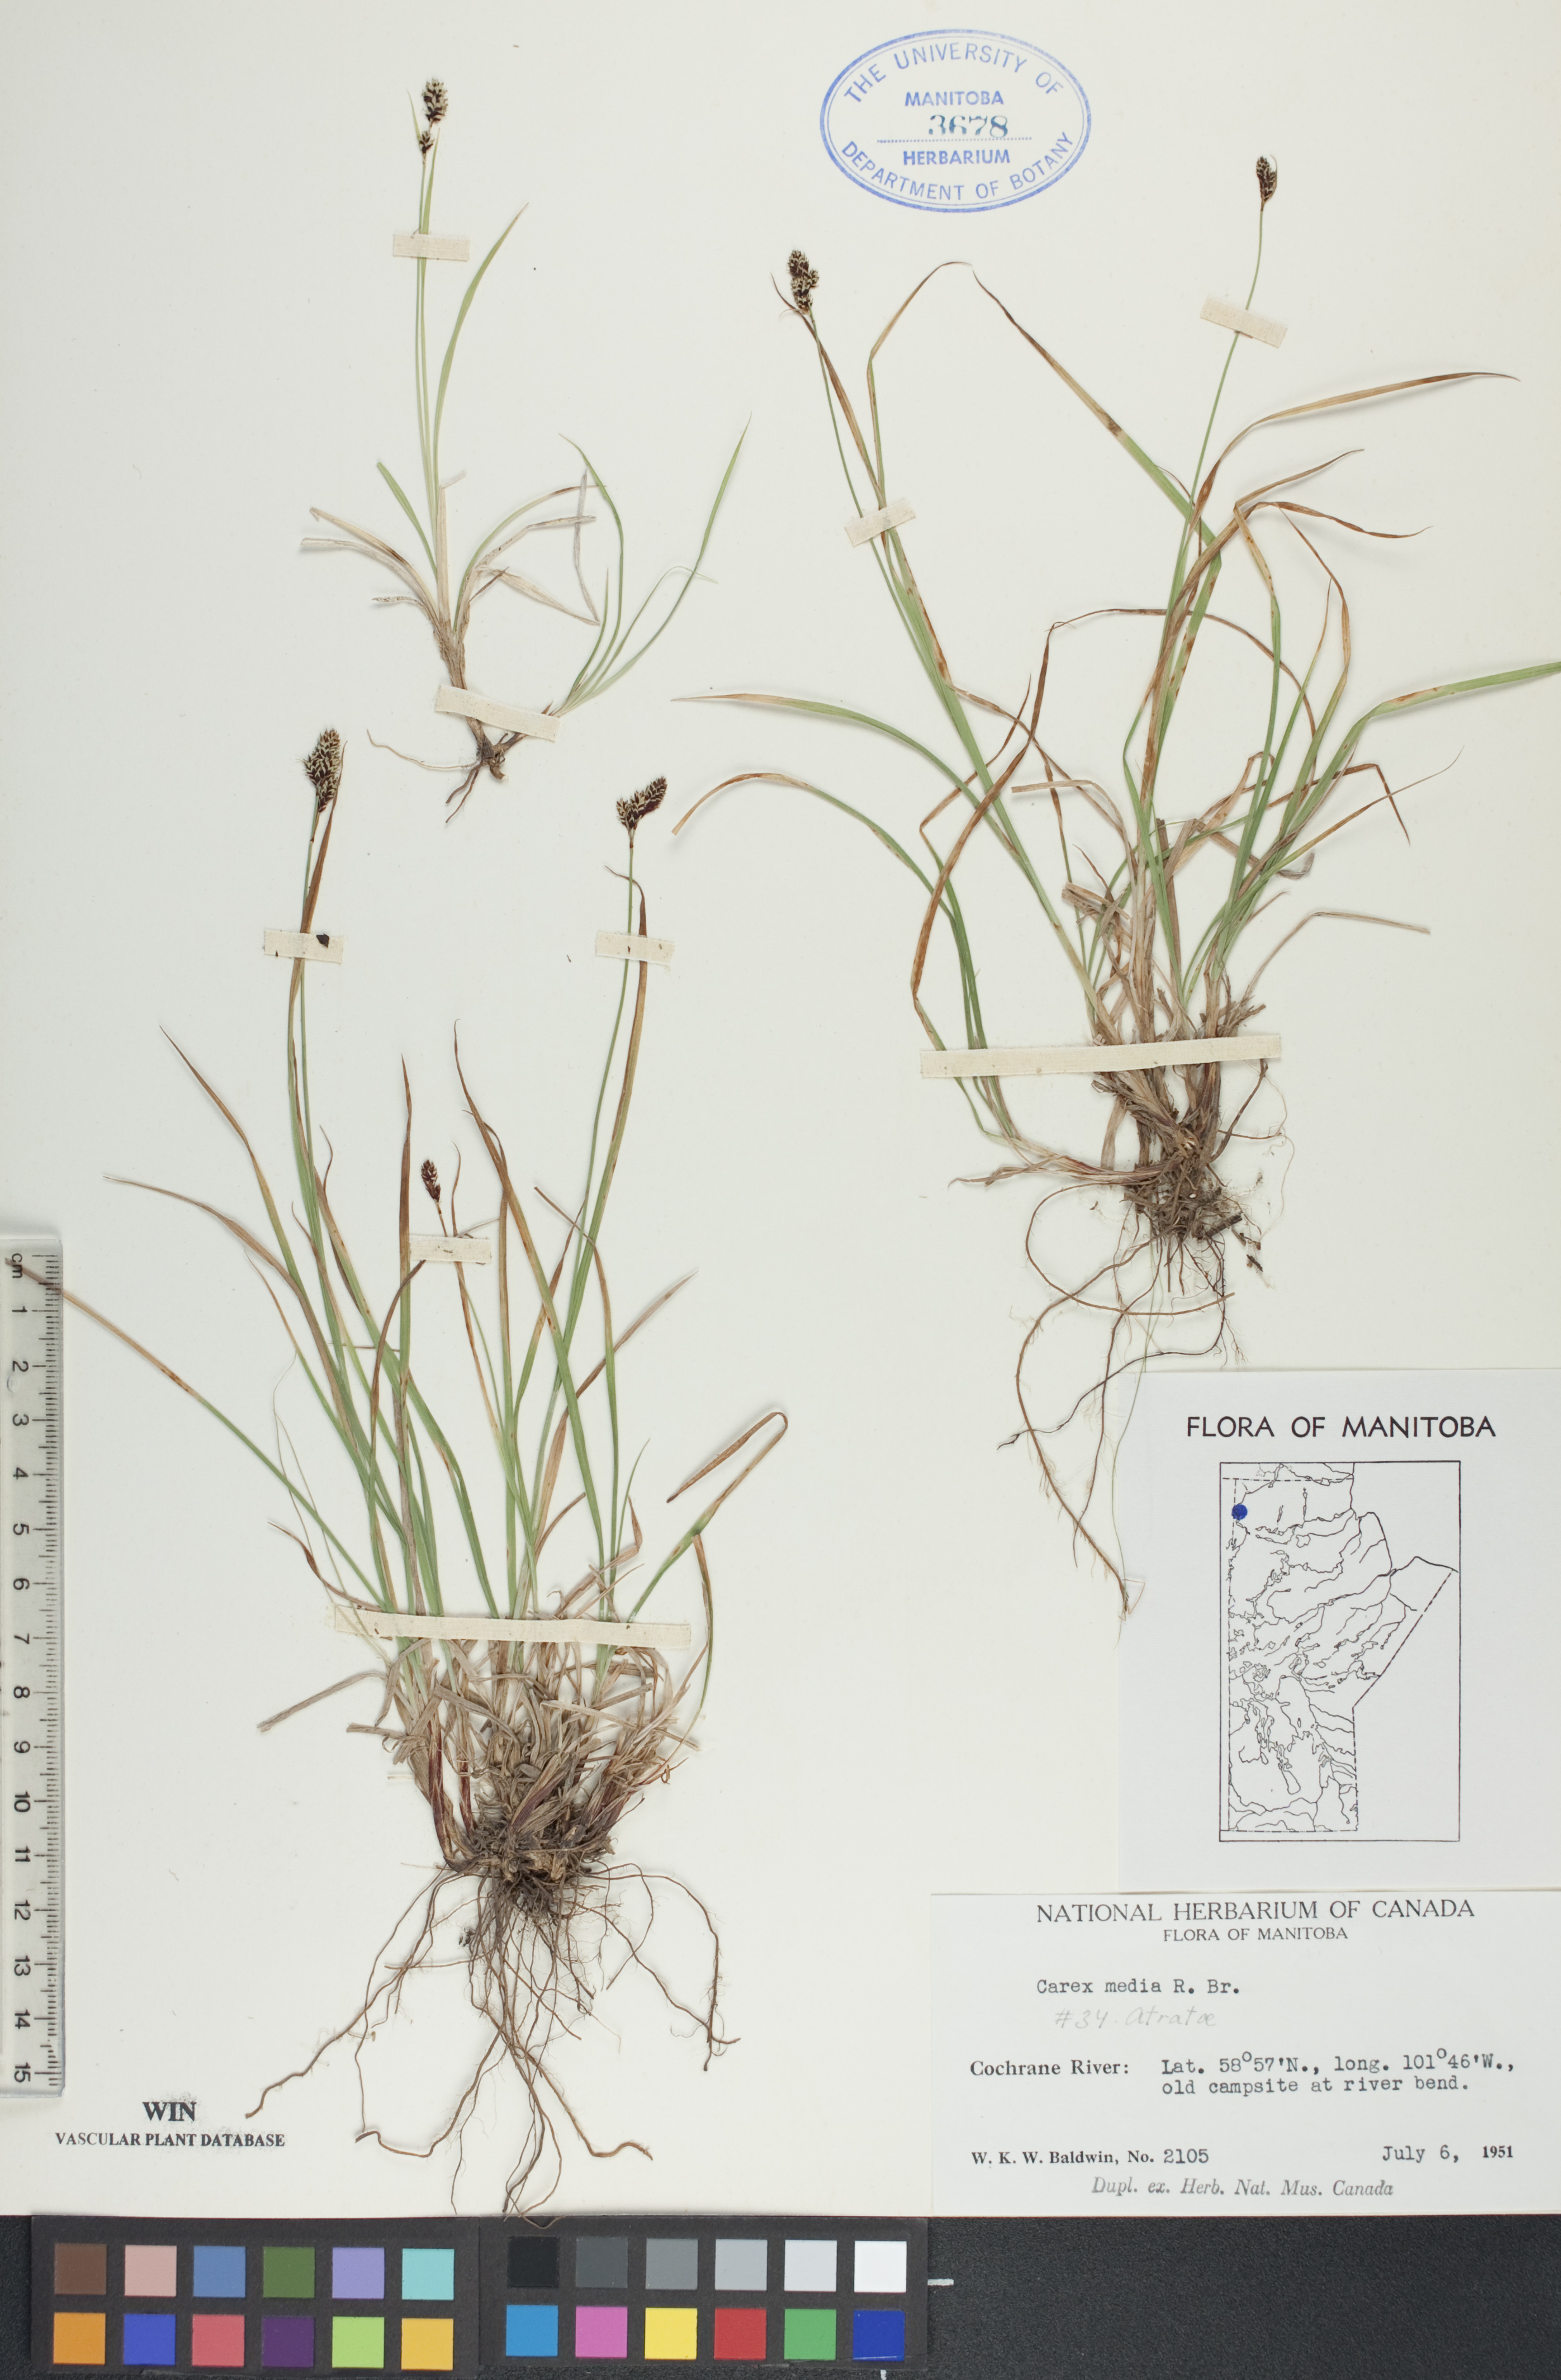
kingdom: Plantae
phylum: Tracheophyta
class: Liliopsida
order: Poales
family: Cyperaceae
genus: Carex
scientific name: Carex media
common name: Alpine sedge
